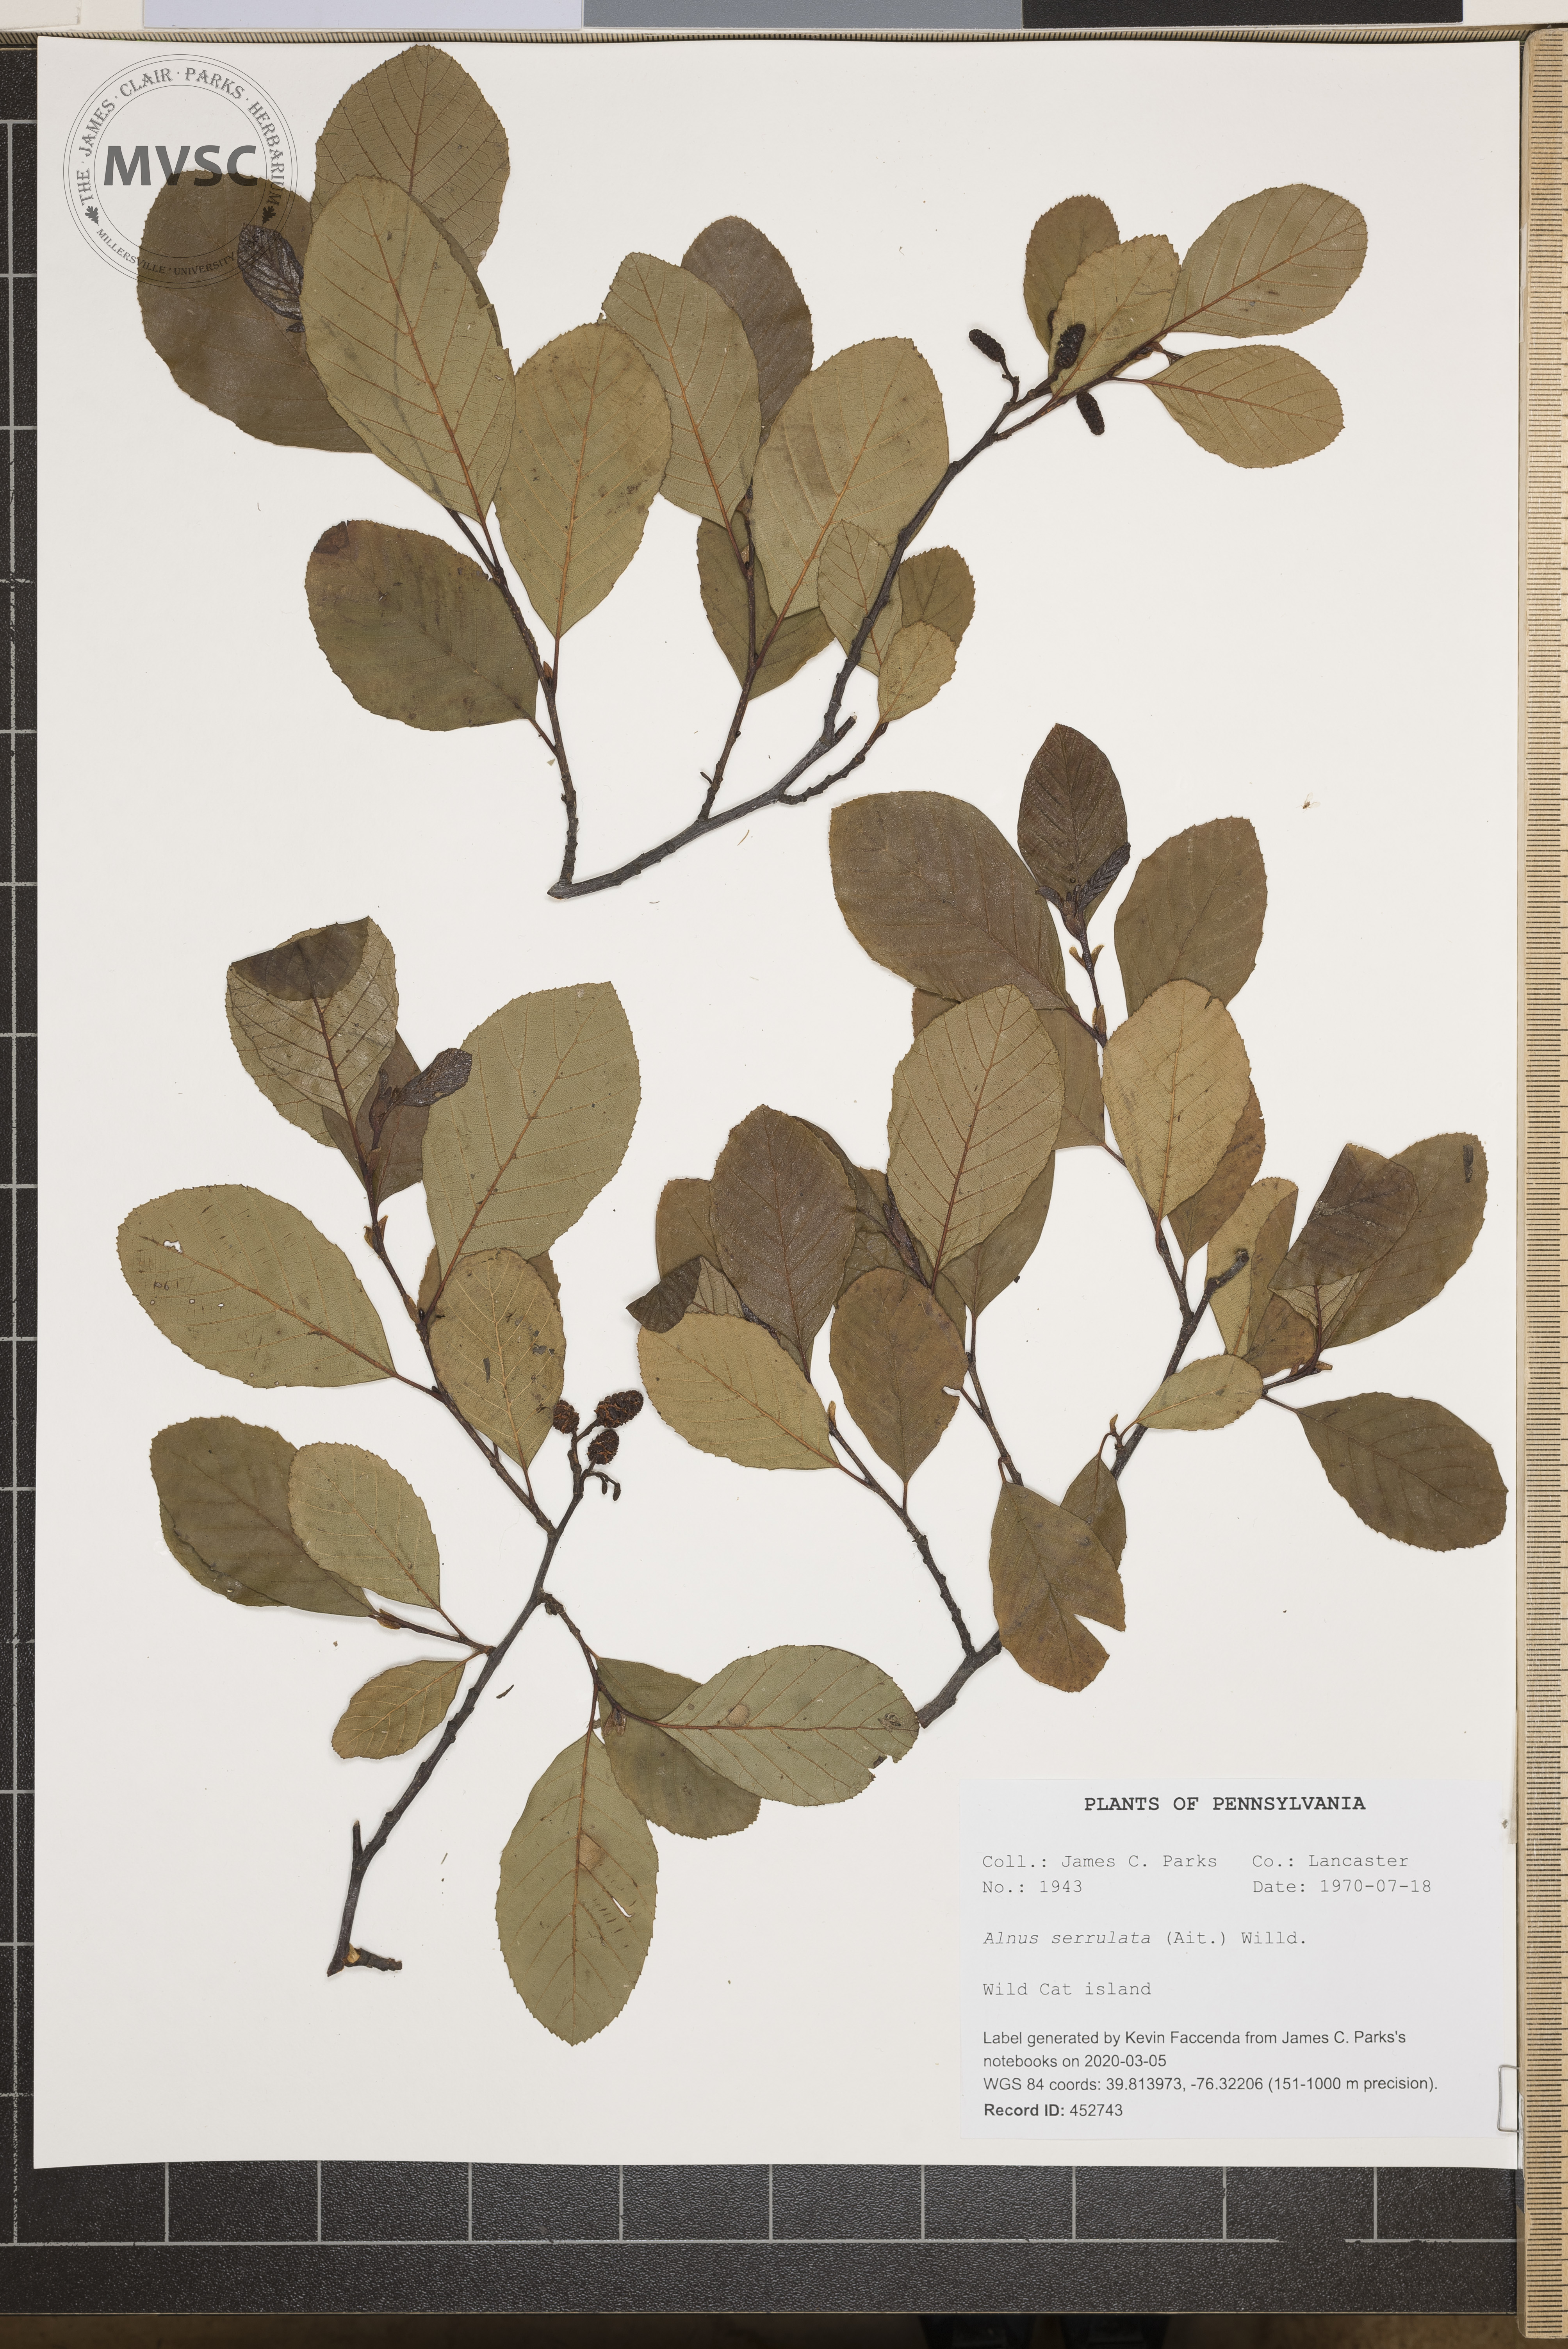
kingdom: Plantae
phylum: Tracheophyta
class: Magnoliopsida
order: Fagales
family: Betulaceae
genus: Alnus
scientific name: Alnus serrulata
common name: Hazel alder
